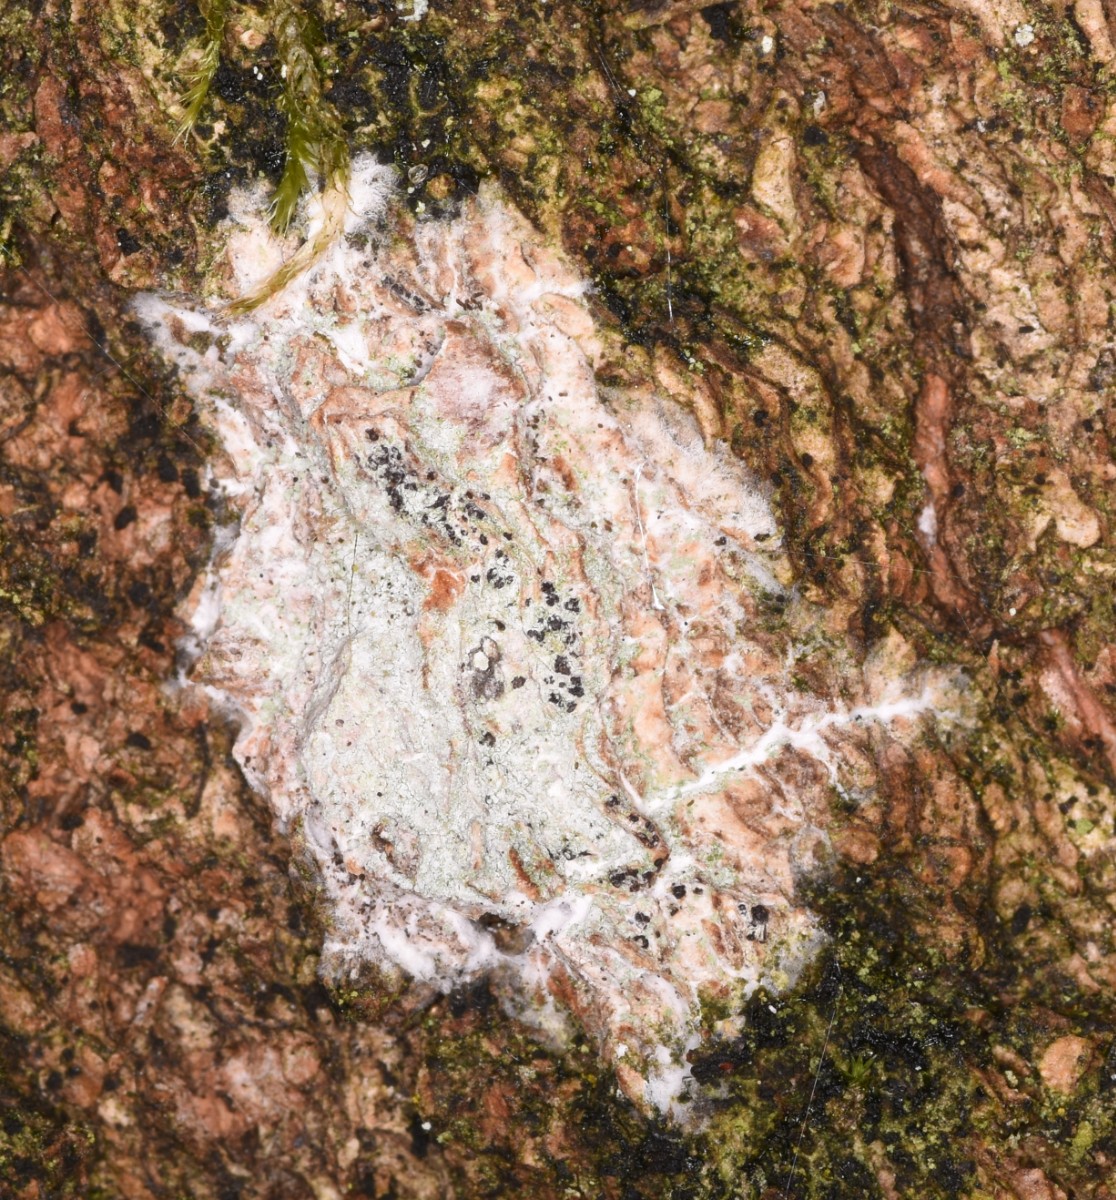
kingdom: Fungi
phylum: Ascomycota
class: Lecanoromycetes
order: Ostropales
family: Phlyctidaceae
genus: Phlyctis
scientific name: Phlyctis argena
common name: almindelig sølvlav
